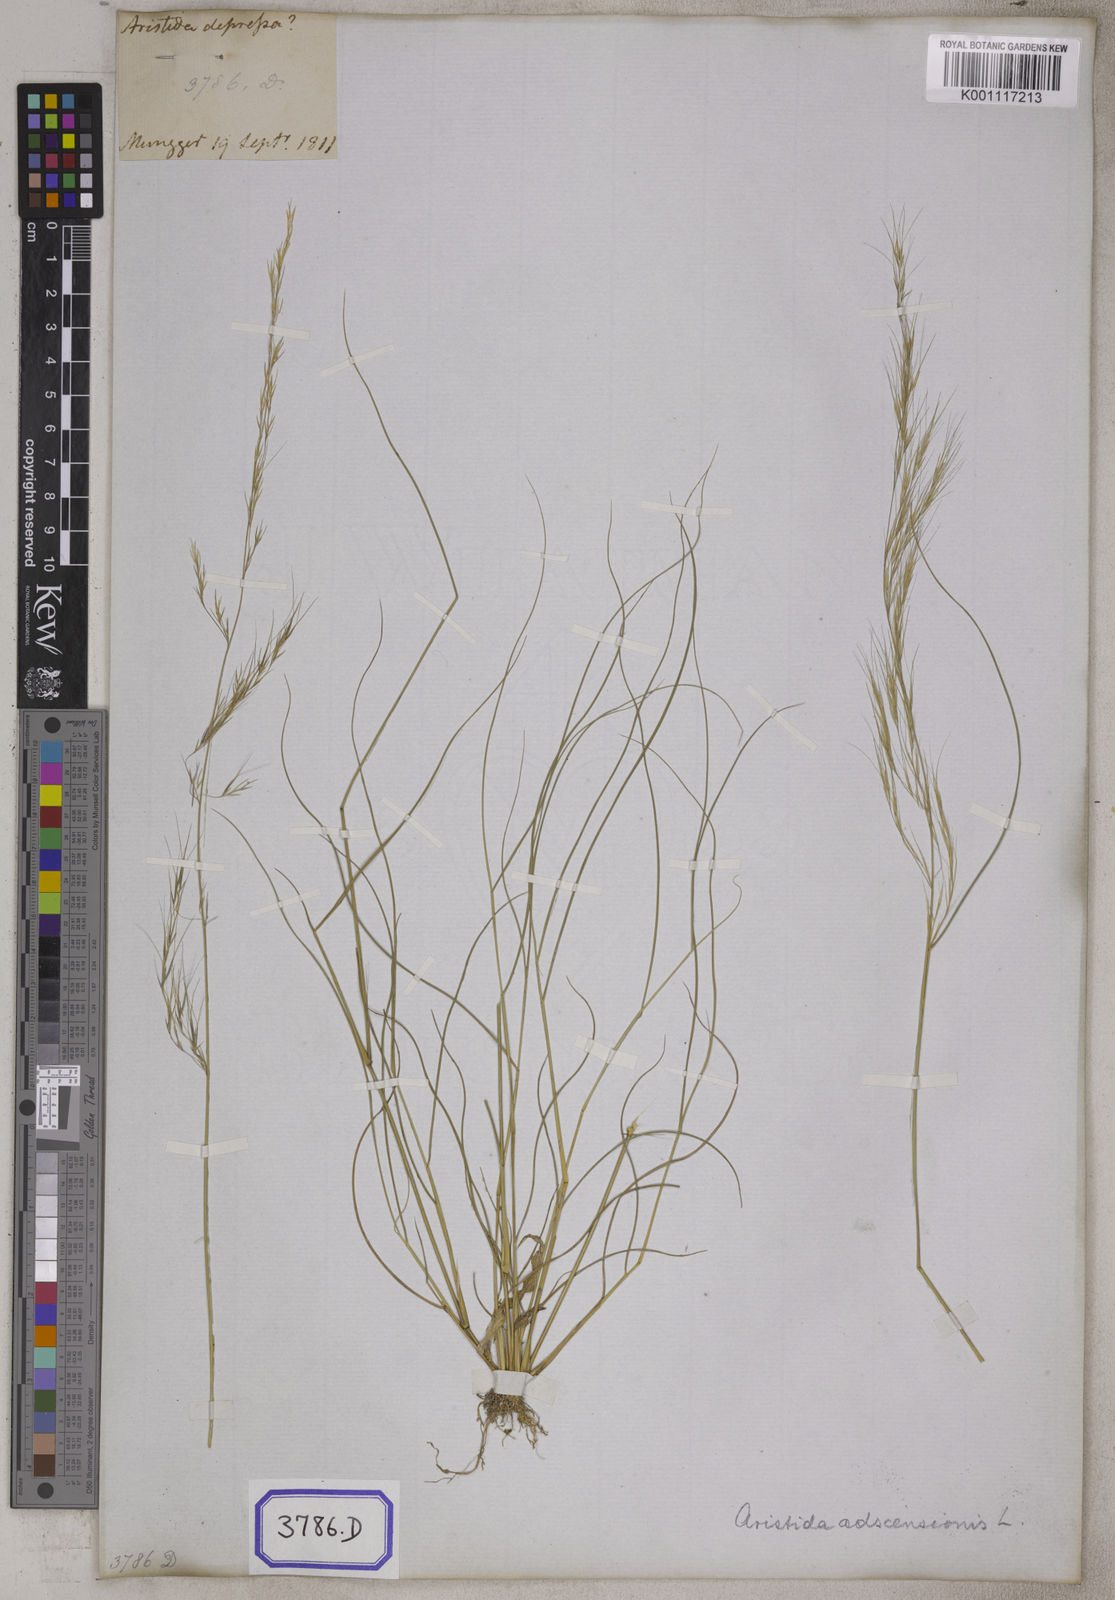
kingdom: Plantae
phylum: Tracheophyta
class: Liliopsida
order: Poales
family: Poaceae
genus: Aristida
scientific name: Aristida adscensionis
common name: Sixweeks threeawn
